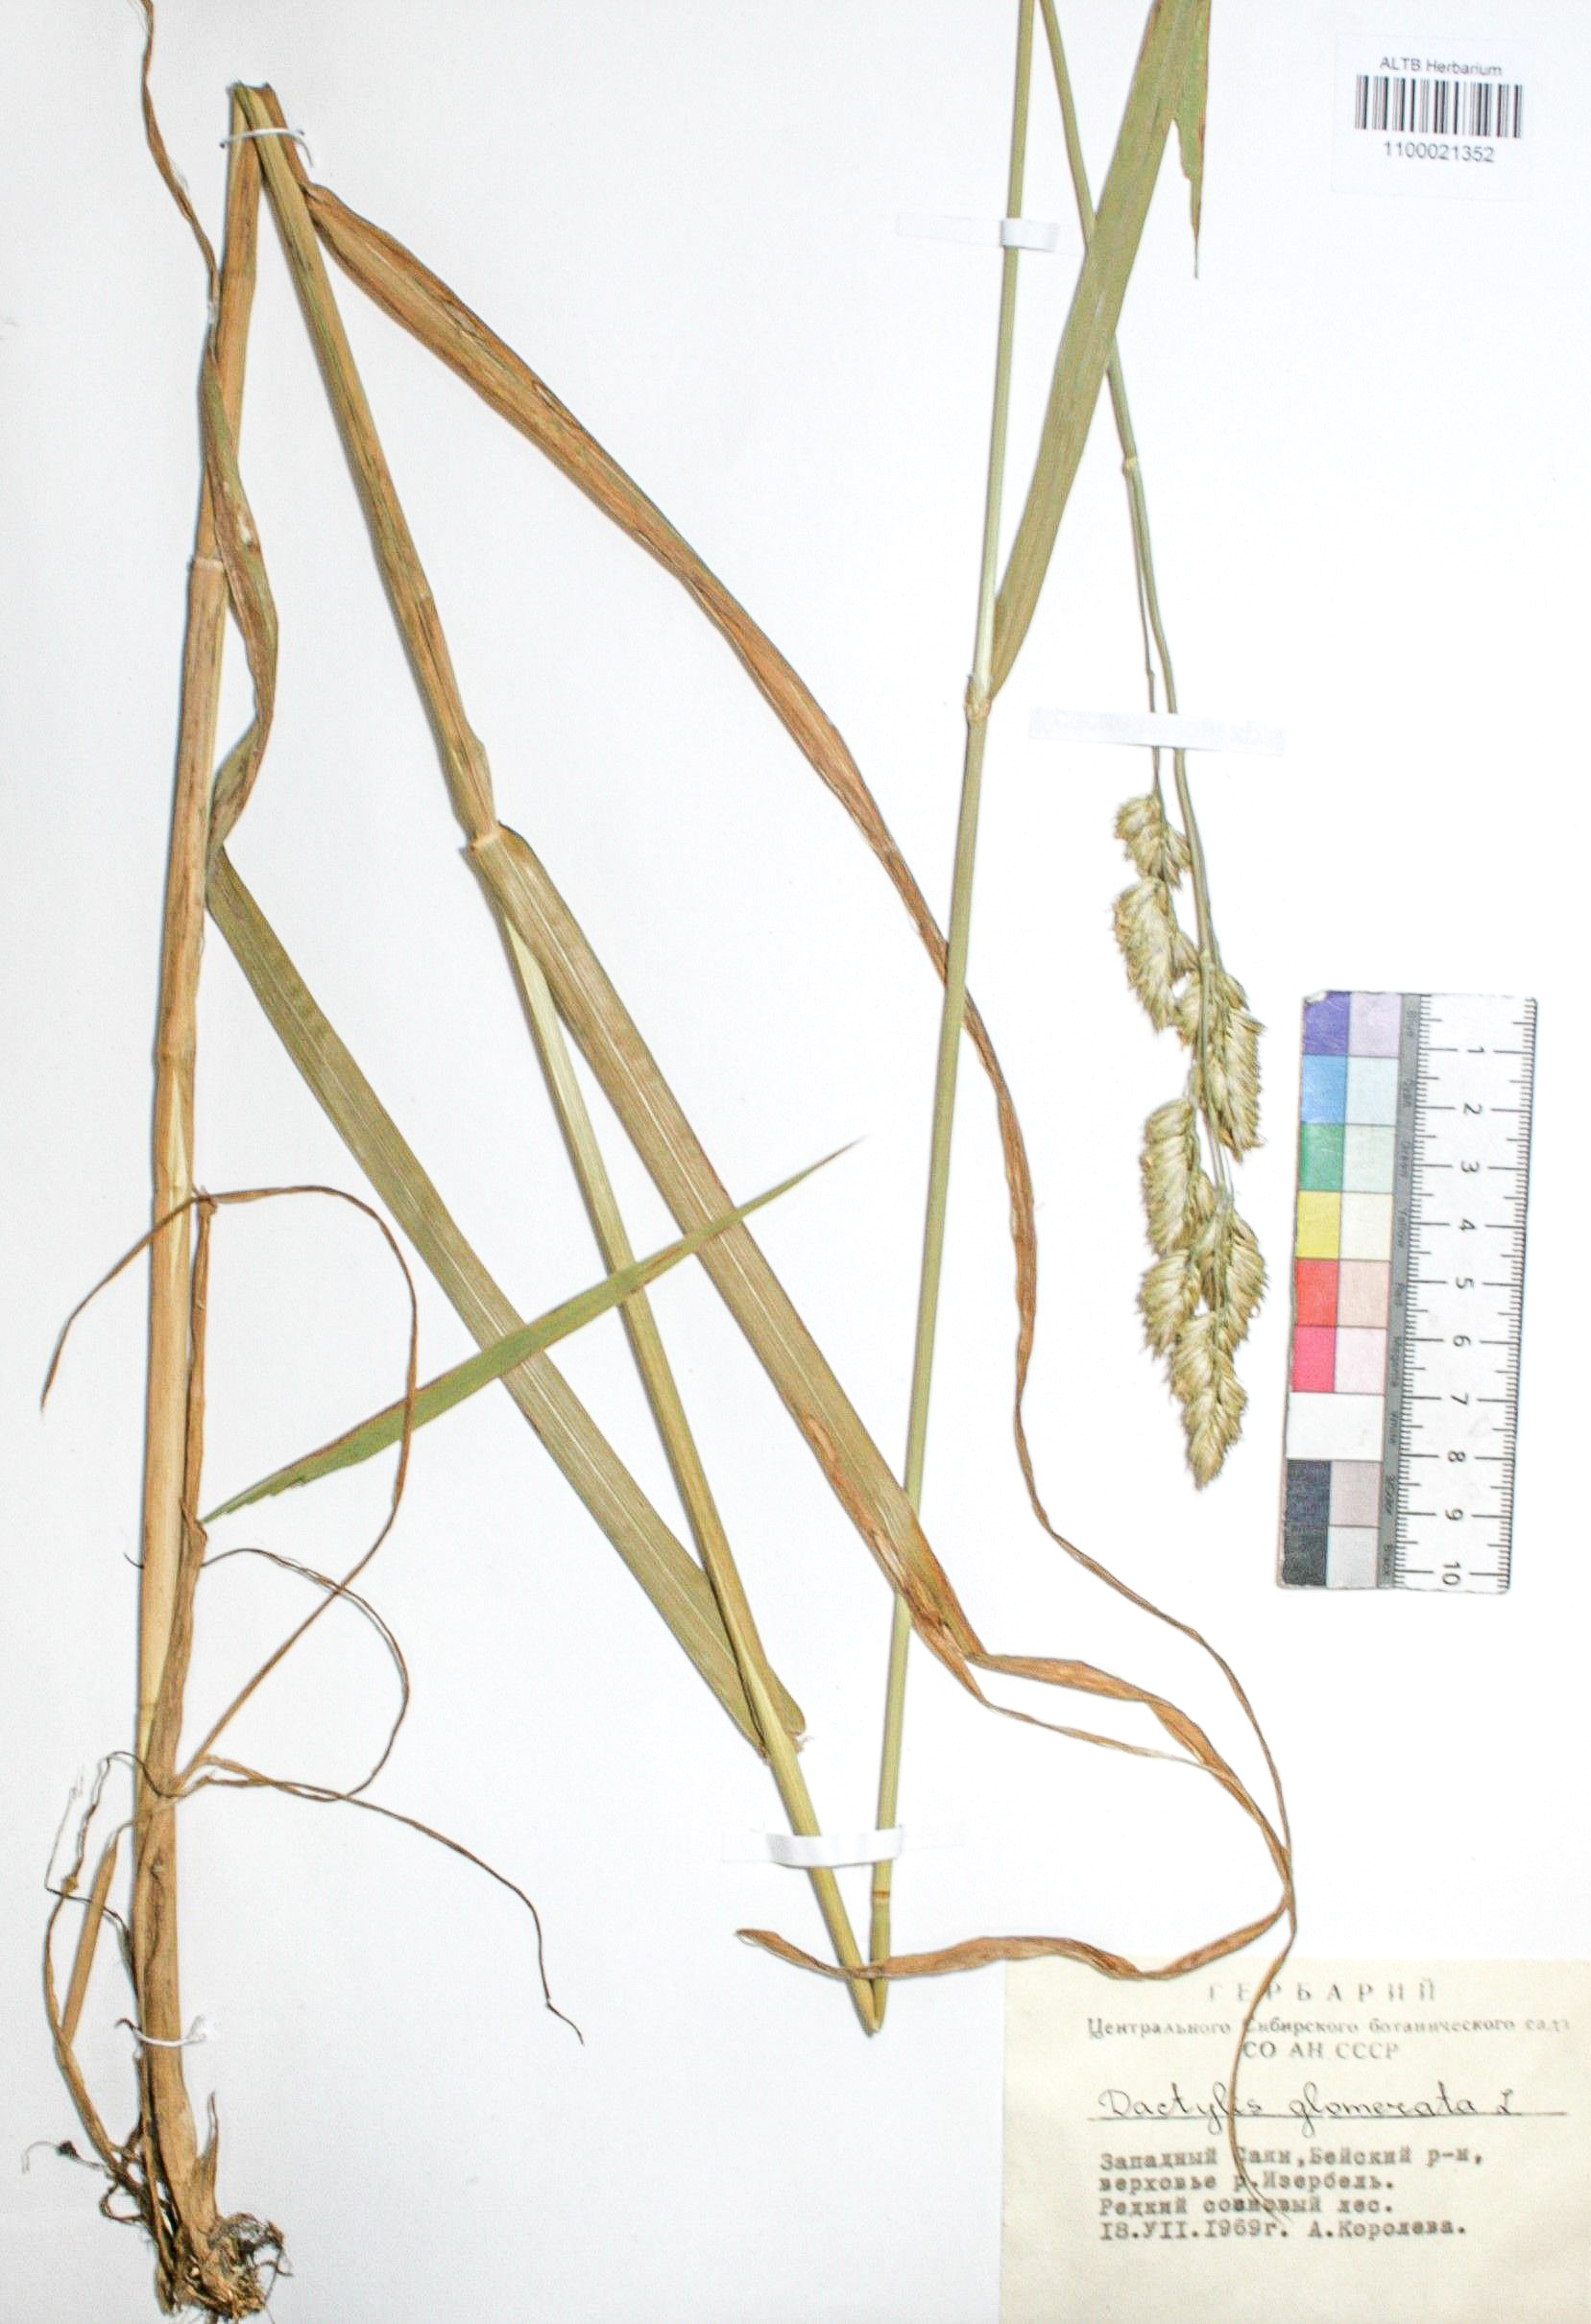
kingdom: Plantae
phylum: Tracheophyta
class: Liliopsida
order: Poales
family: Poaceae
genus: Dactylis
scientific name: Dactylis glomerata
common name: Orchardgrass
